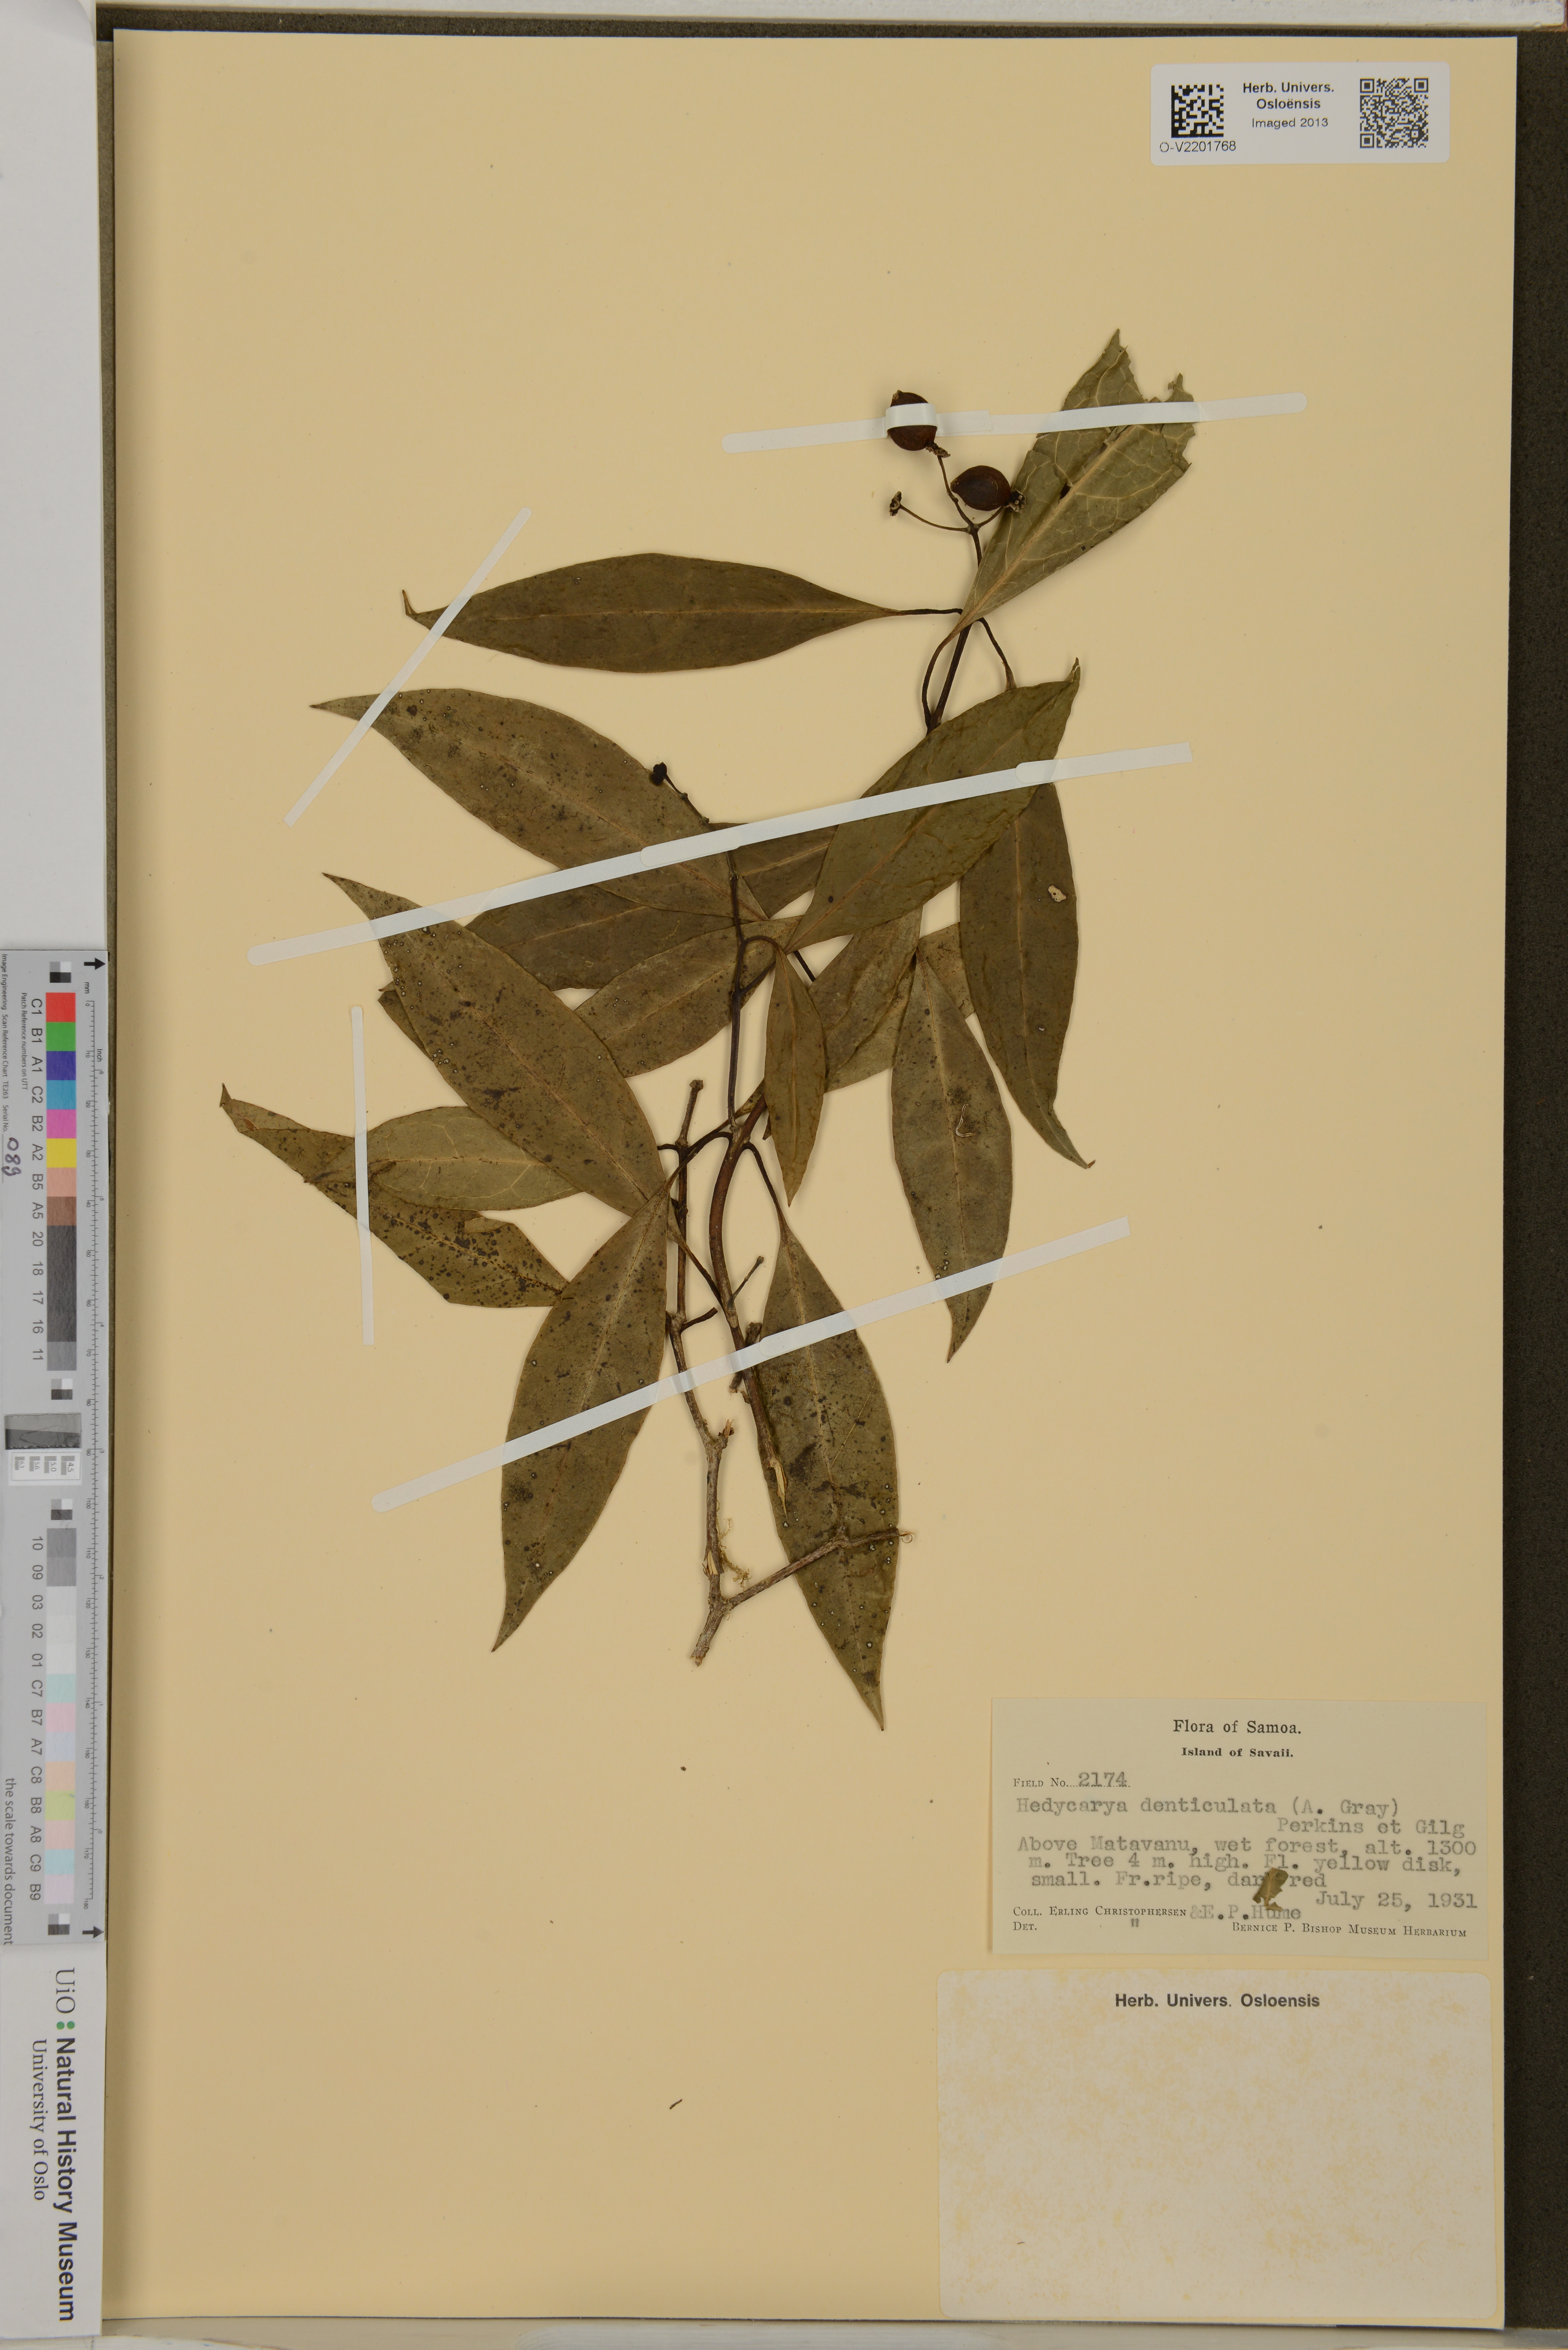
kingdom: Plantae
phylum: Tracheophyta
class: Magnoliopsida
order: Laurales
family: Monimiaceae
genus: Hedycarya
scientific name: Hedycarya denticulata
